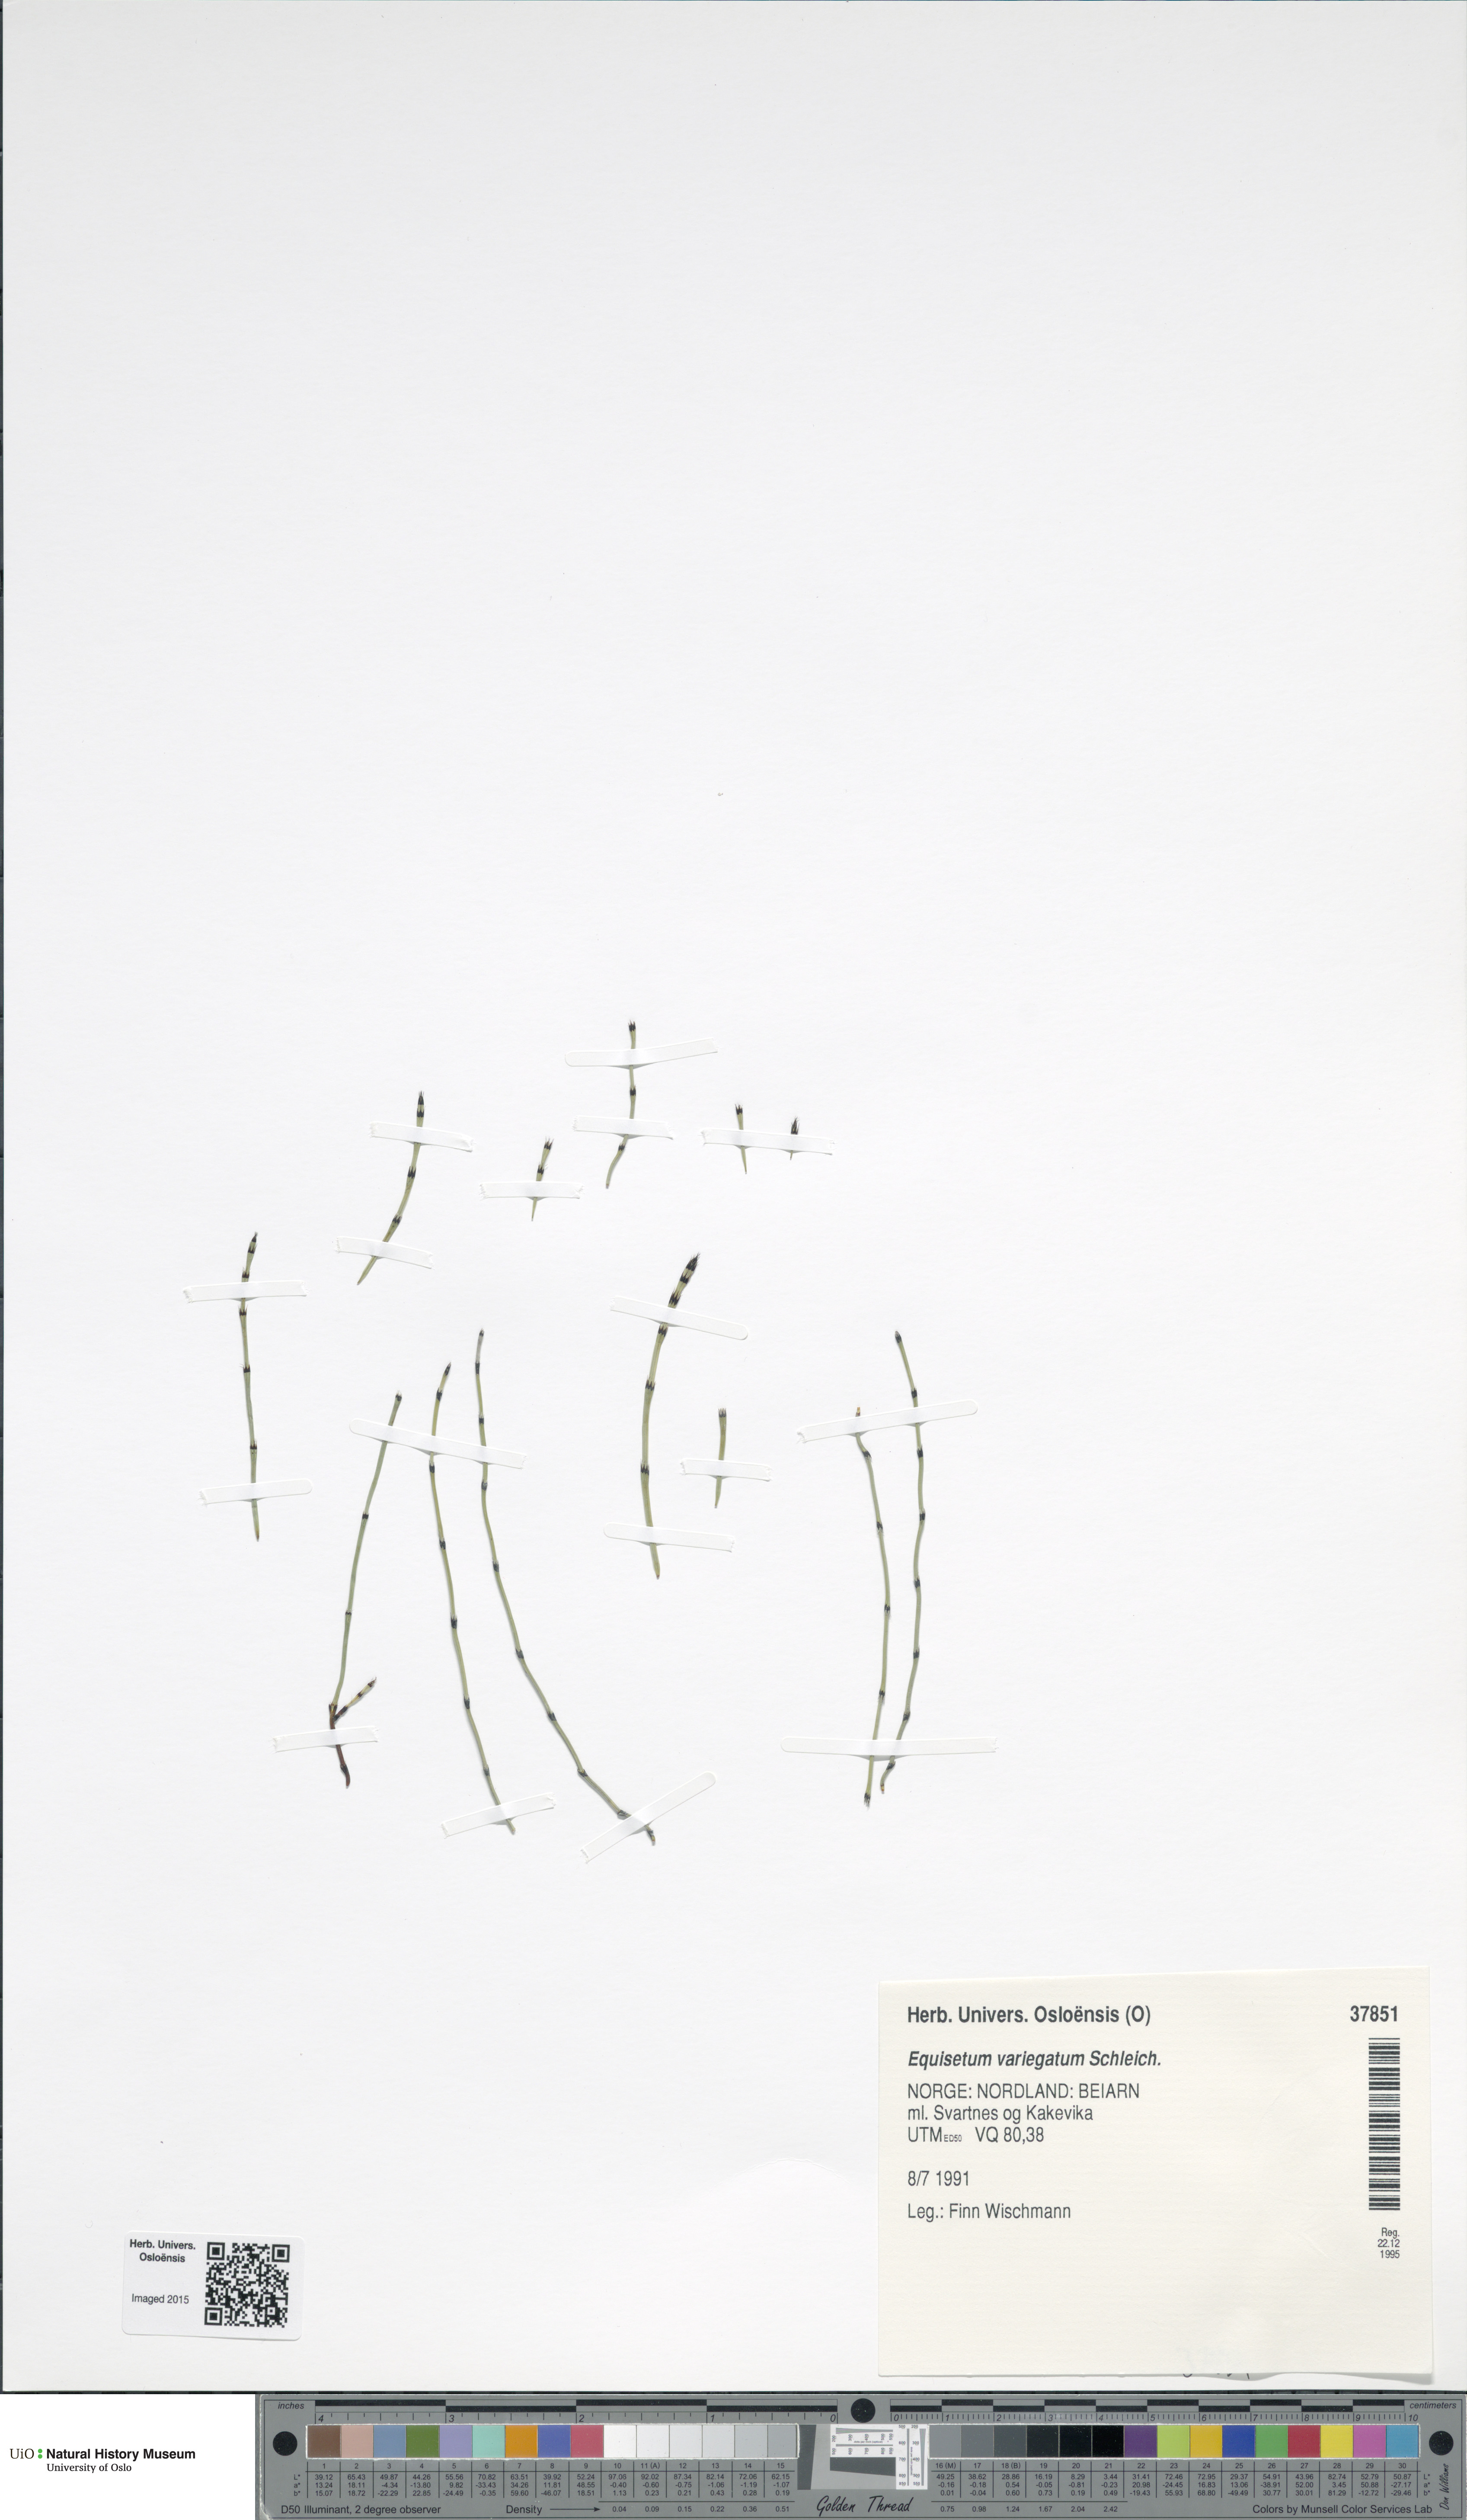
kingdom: Plantae
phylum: Tracheophyta
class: Polypodiopsida
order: Equisetales
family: Equisetaceae
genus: Equisetum
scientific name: Equisetum variegatum
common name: Variegated horsetail
